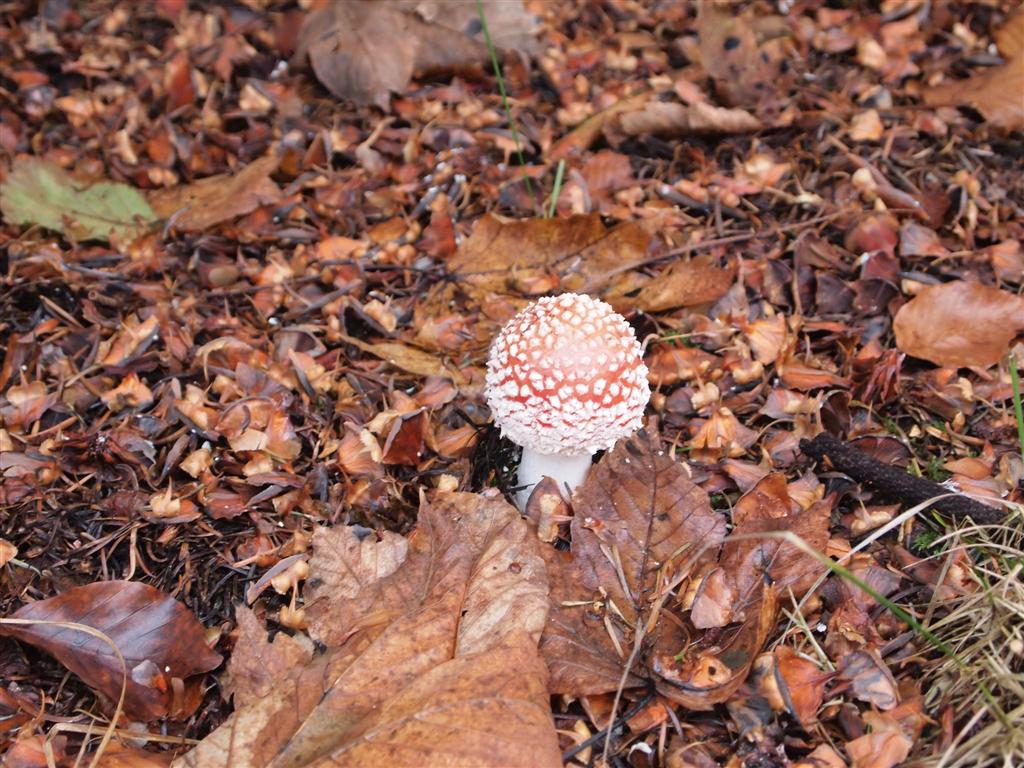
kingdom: Fungi
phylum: Basidiomycota
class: Agaricomycetes
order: Agaricales
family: Amanitaceae
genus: Amanita
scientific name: Amanita muscaria
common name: rød fluesvamp
